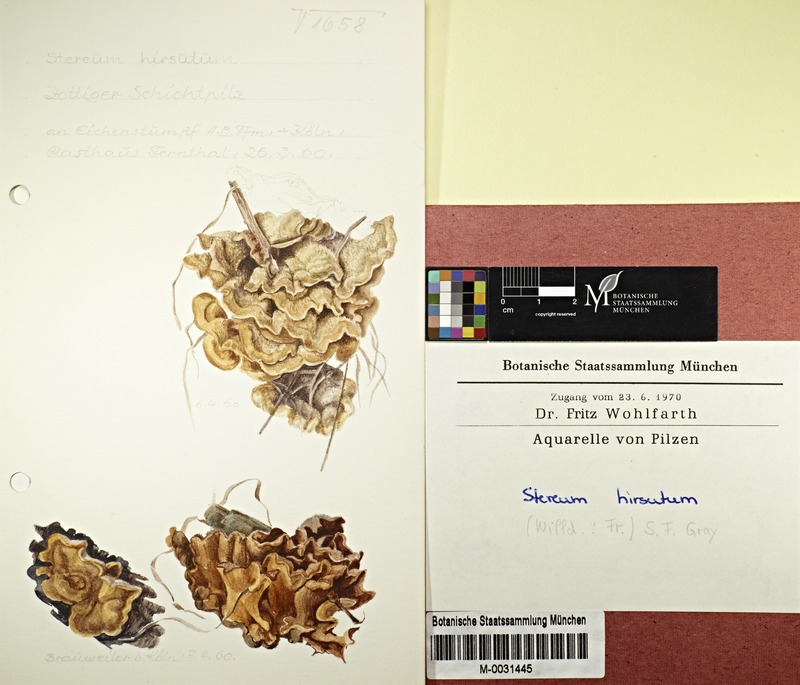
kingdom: Fungi
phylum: Basidiomycota
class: Agaricomycetes
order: Russulales
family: Stereaceae
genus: Stereum
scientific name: Stereum hirsutum
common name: Hairy curtain crust
